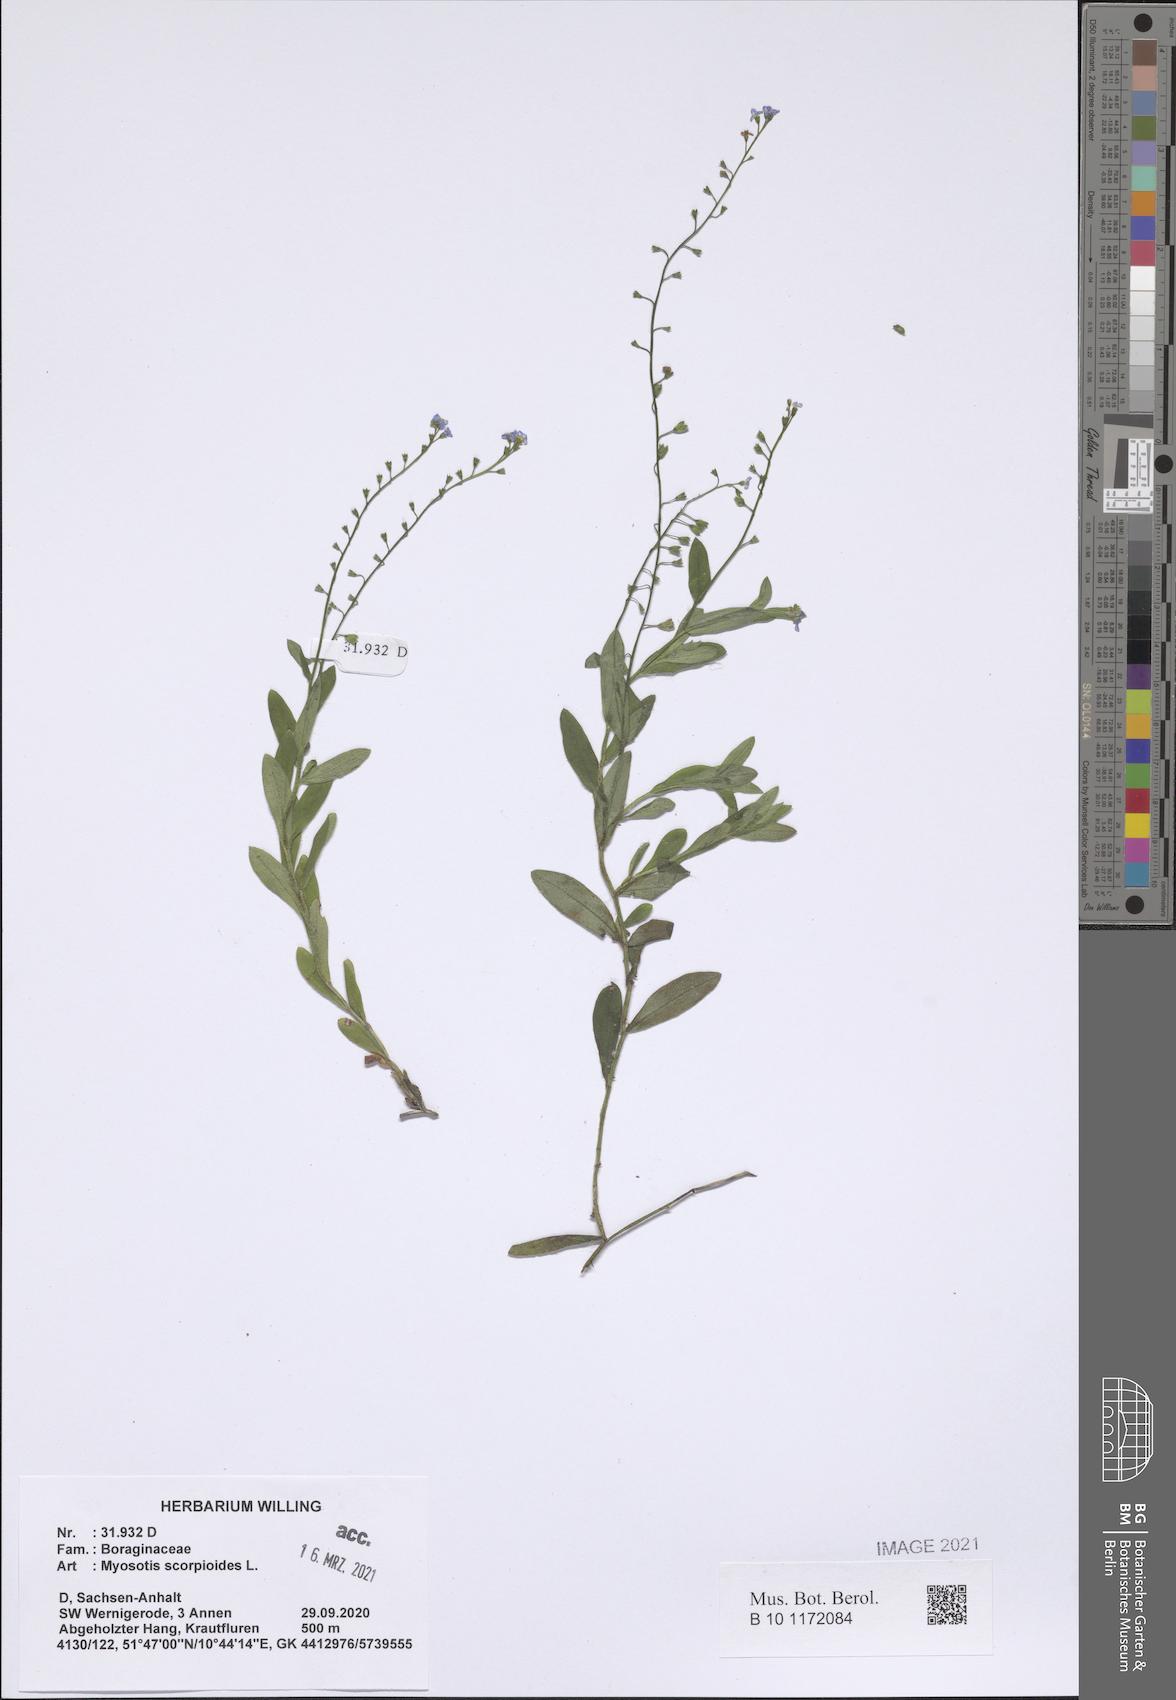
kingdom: Plantae
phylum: Tracheophyta
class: Magnoliopsida
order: Boraginales
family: Boraginaceae
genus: Myosotis
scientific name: Myosotis scorpioides
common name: Water forget-me-not
